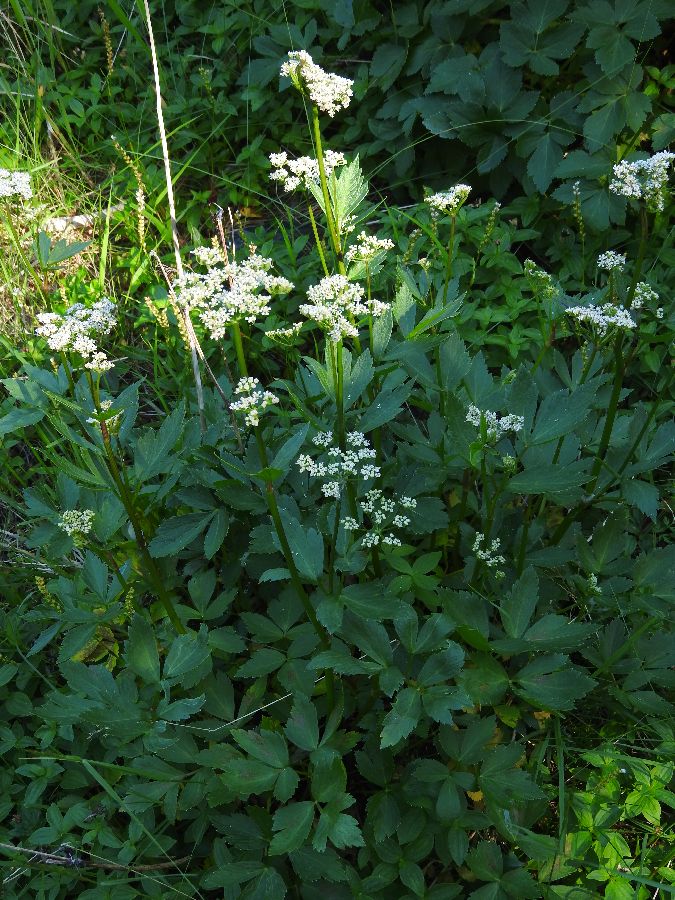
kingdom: Plantae
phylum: Tracheophyta
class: Magnoliopsida
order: Apiales
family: Apiaceae
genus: Ligusticum
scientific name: Ligusticum scothicum
